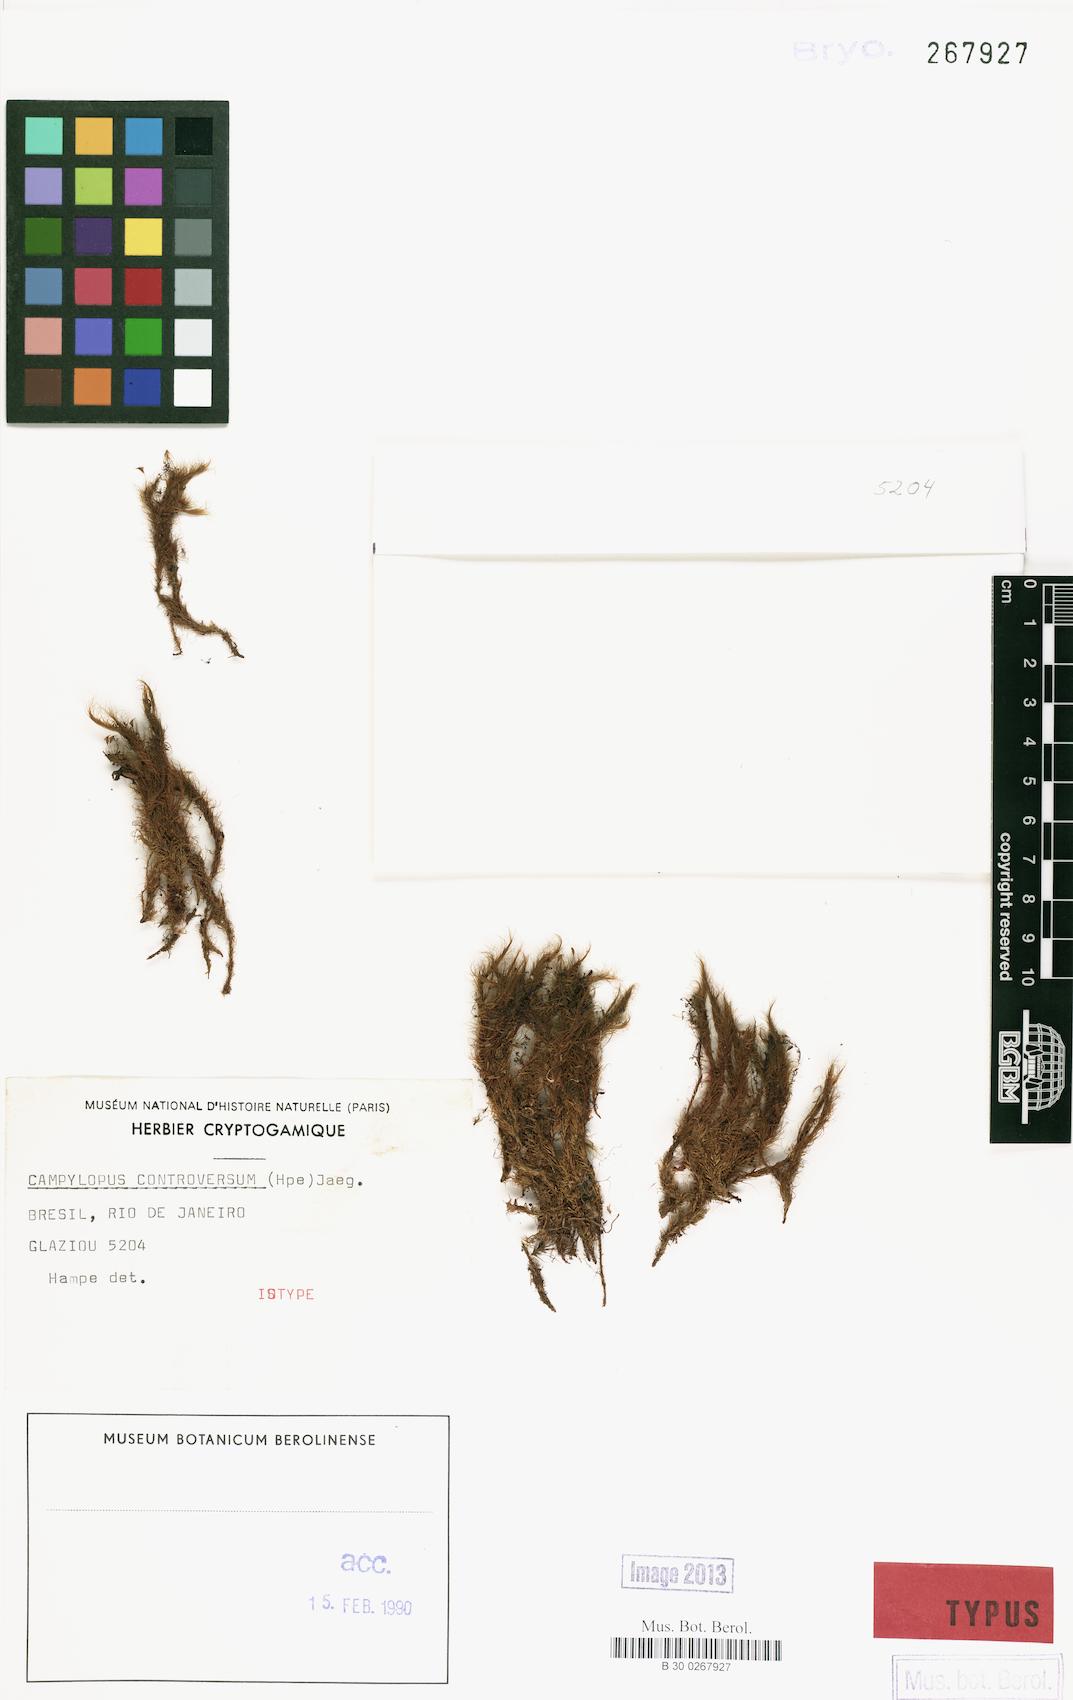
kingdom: Plantae
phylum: Bryophyta
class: Bryopsida
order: Dicranales
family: Leucobryaceae
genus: Campylopus
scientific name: Campylopus thwaitesii
